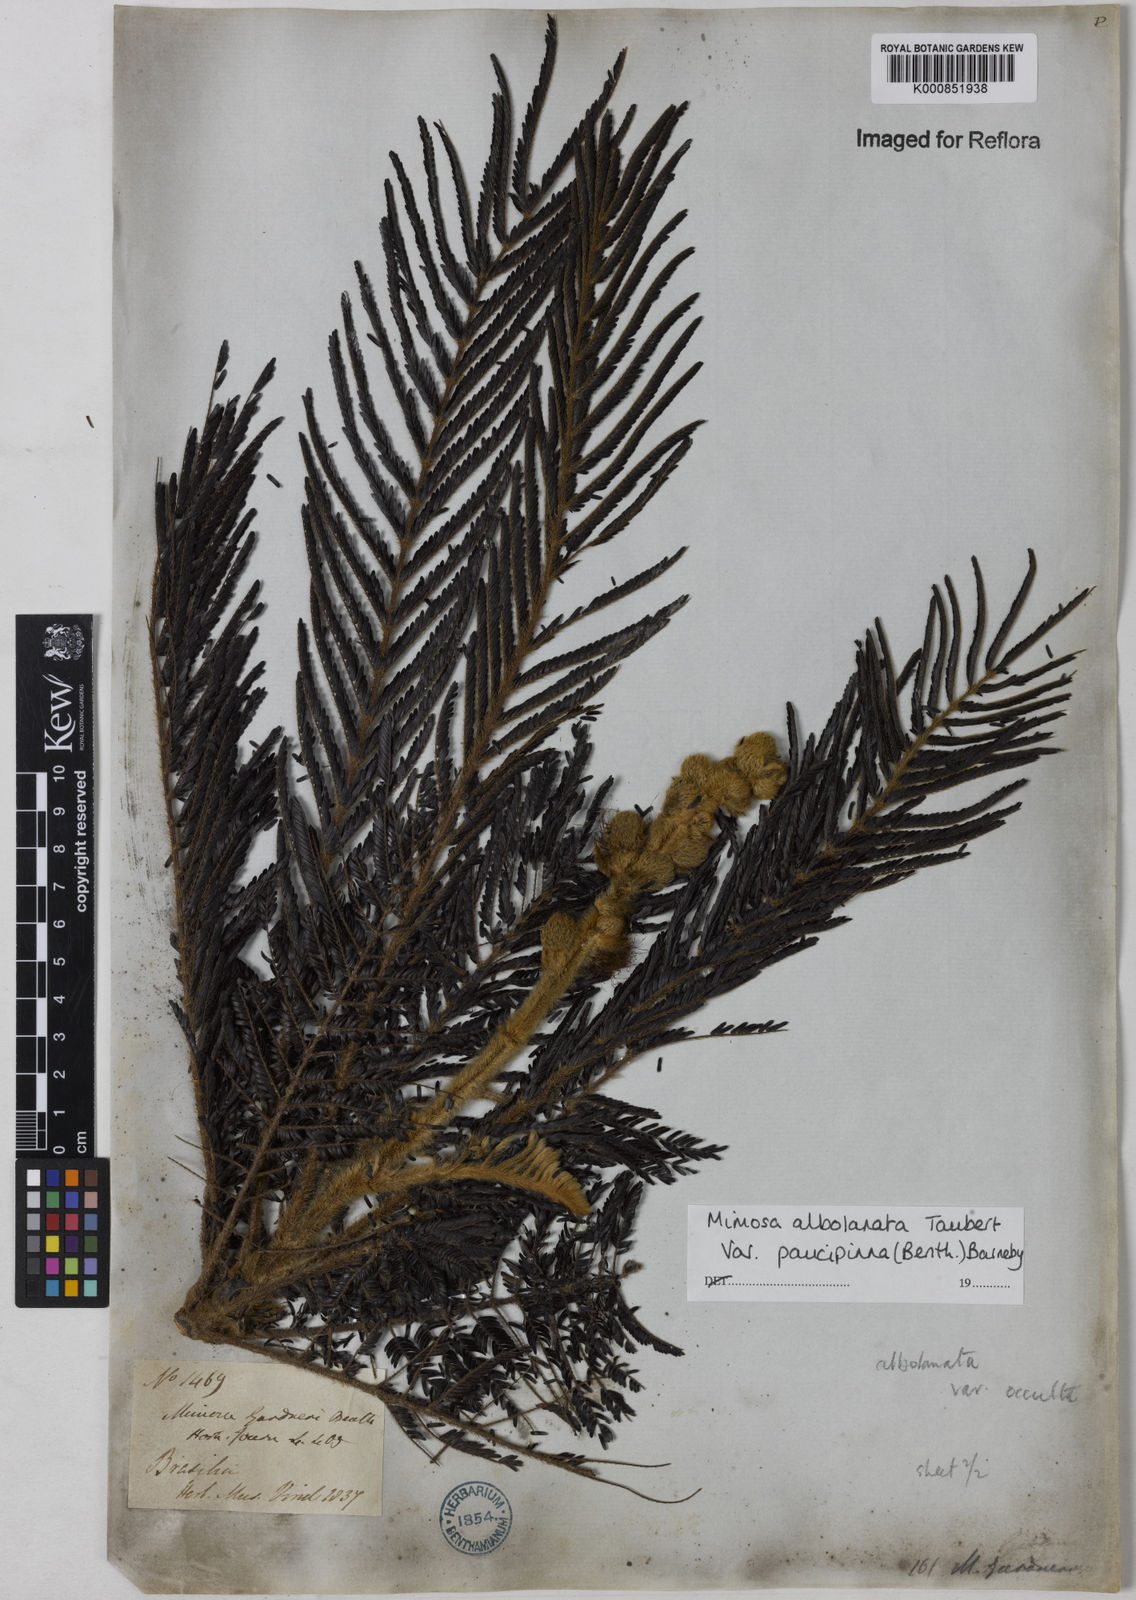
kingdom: Plantae
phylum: Tracheophyta
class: Magnoliopsida
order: Fabales
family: Fabaceae
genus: Mimosa
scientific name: Mimosa albolanata
